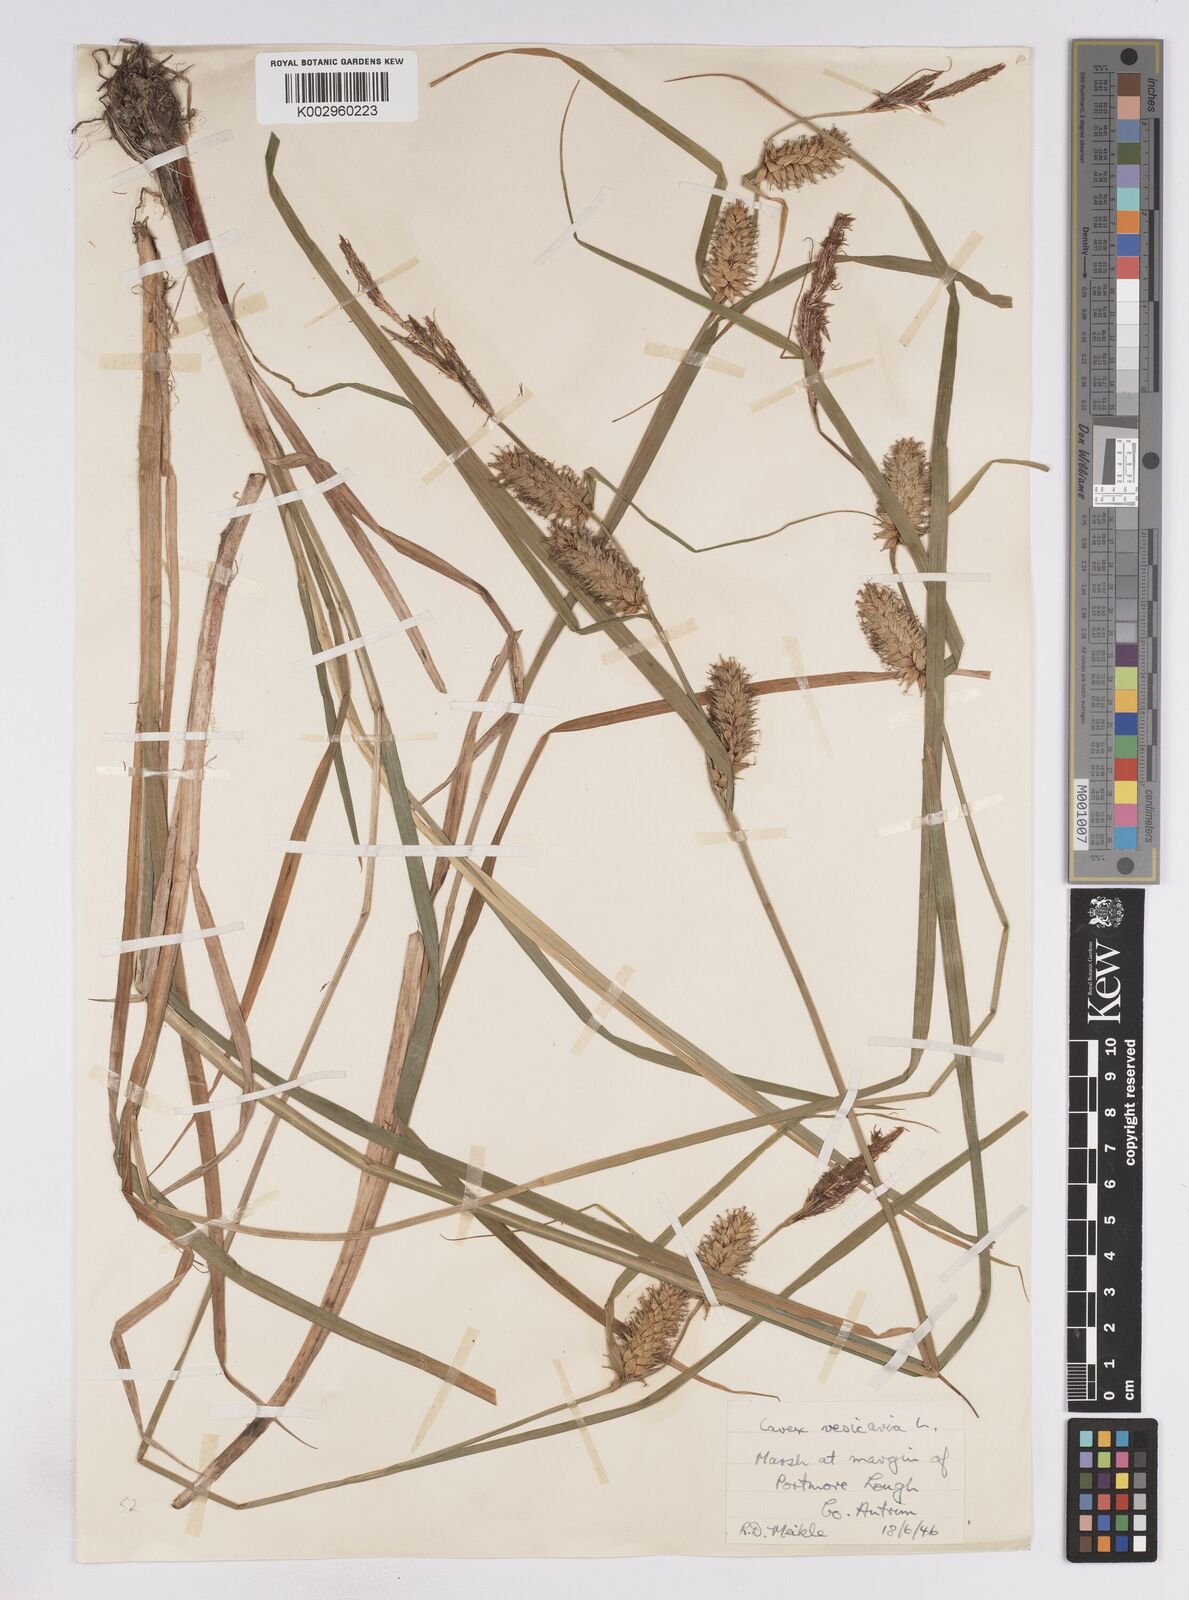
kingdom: Plantae
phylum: Tracheophyta
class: Liliopsida
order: Poales
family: Cyperaceae
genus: Carex
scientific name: Carex vesicaria
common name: Bladder-sedge
